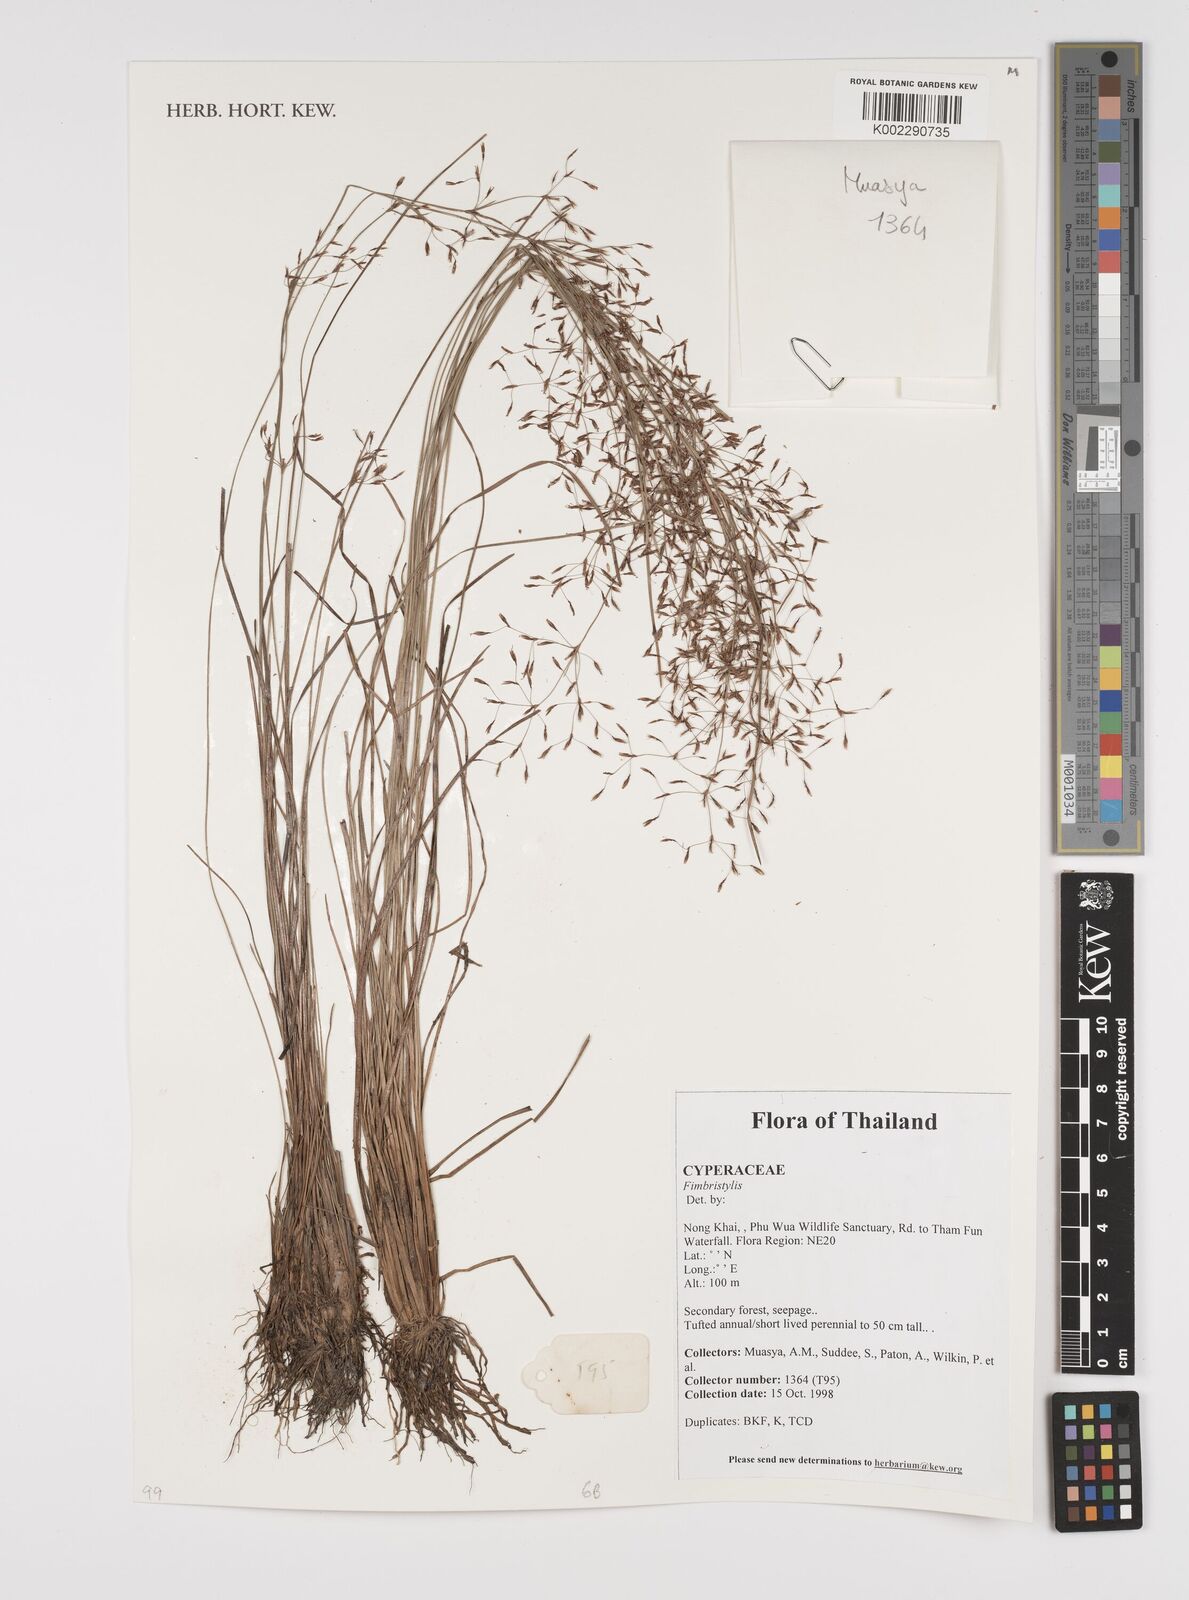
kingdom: Plantae
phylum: Tracheophyta
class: Liliopsida
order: Poales
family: Cyperaceae
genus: Fimbristylis
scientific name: Fimbristylis
